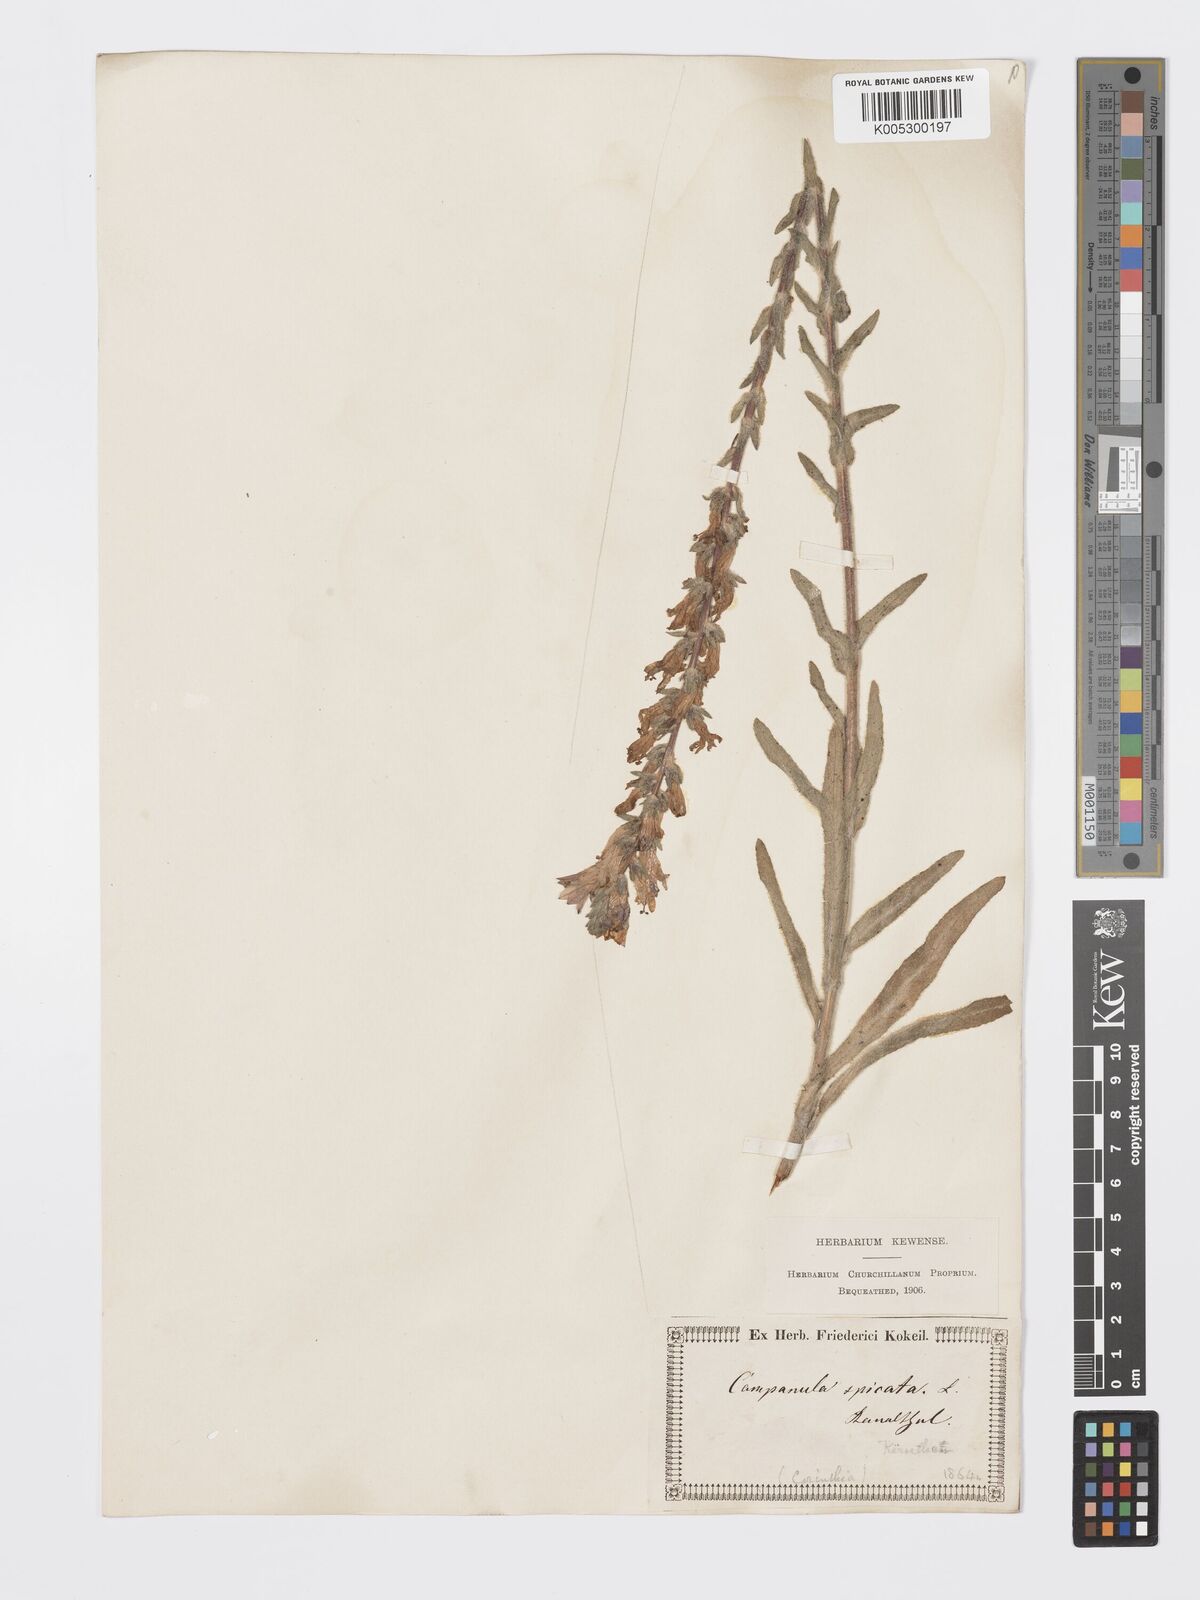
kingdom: Plantae
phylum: Tracheophyta
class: Magnoliopsida
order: Asterales
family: Campanulaceae
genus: Campanula
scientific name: Campanula spicata
